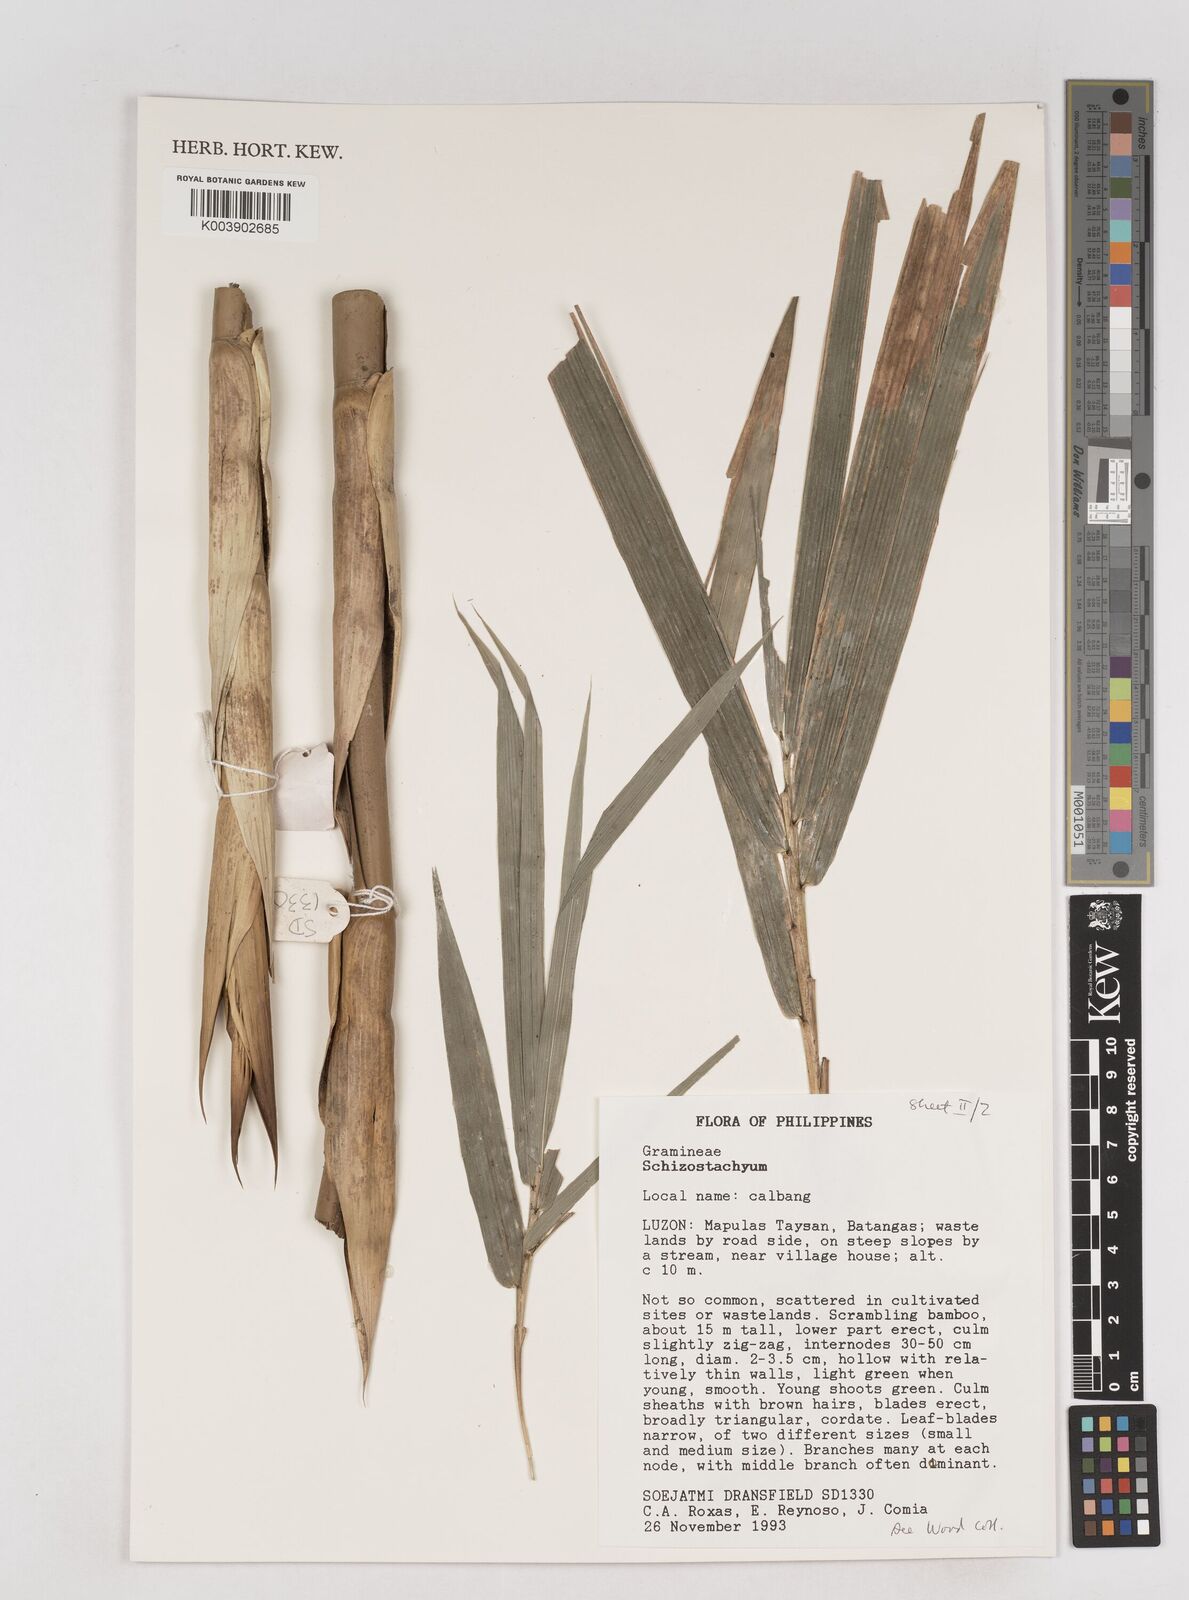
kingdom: Plantae
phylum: Tracheophyta
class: Liliopsida
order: Poales
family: Poaceae
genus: Schizostachyum
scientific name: Schizostachyum textorium
